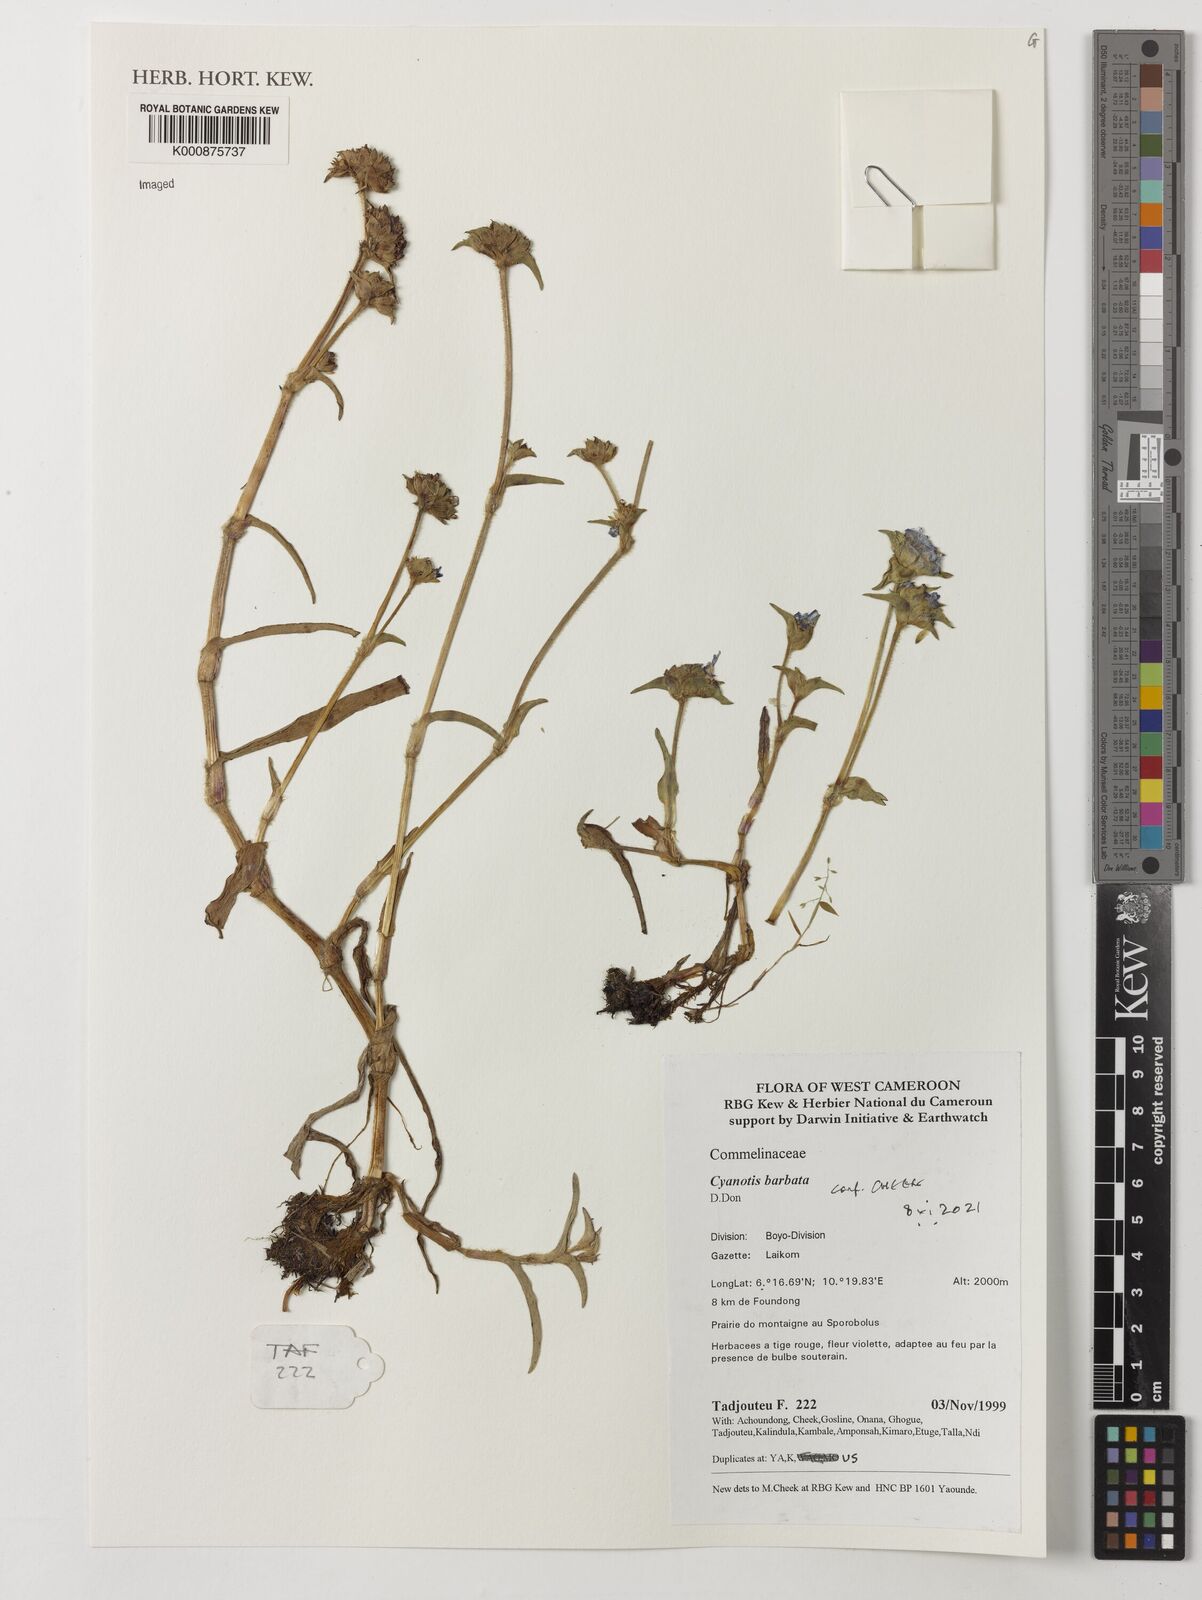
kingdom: Plantae
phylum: Tracheophyta
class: Liliopsida
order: Commelinales
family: Commelinaceae
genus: Cyanotis
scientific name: Cyanotis vaga
